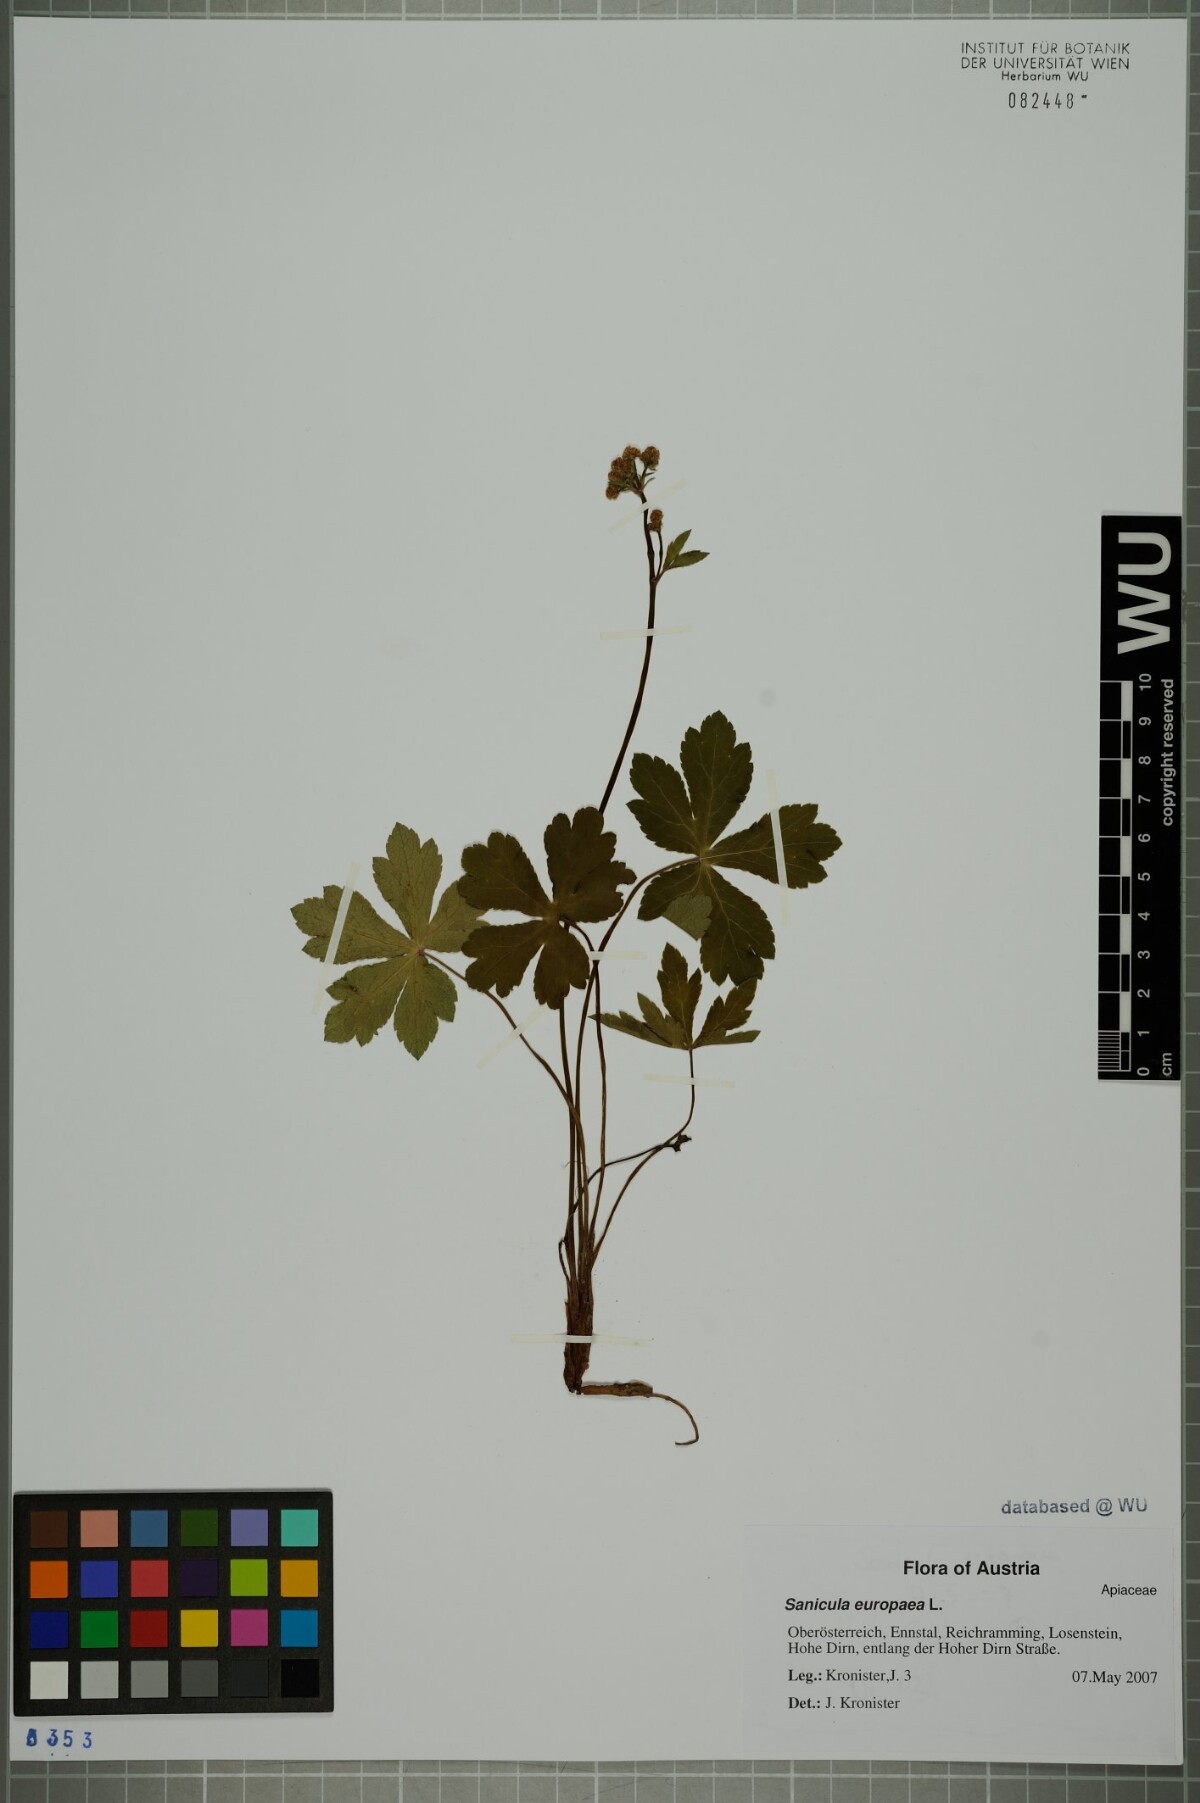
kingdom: Plantae
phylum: Tracheophyta
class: Magnoliopsida
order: Apiales
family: Apiaceae
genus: Sanicula
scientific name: Sanicula europaea
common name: Sanicle
